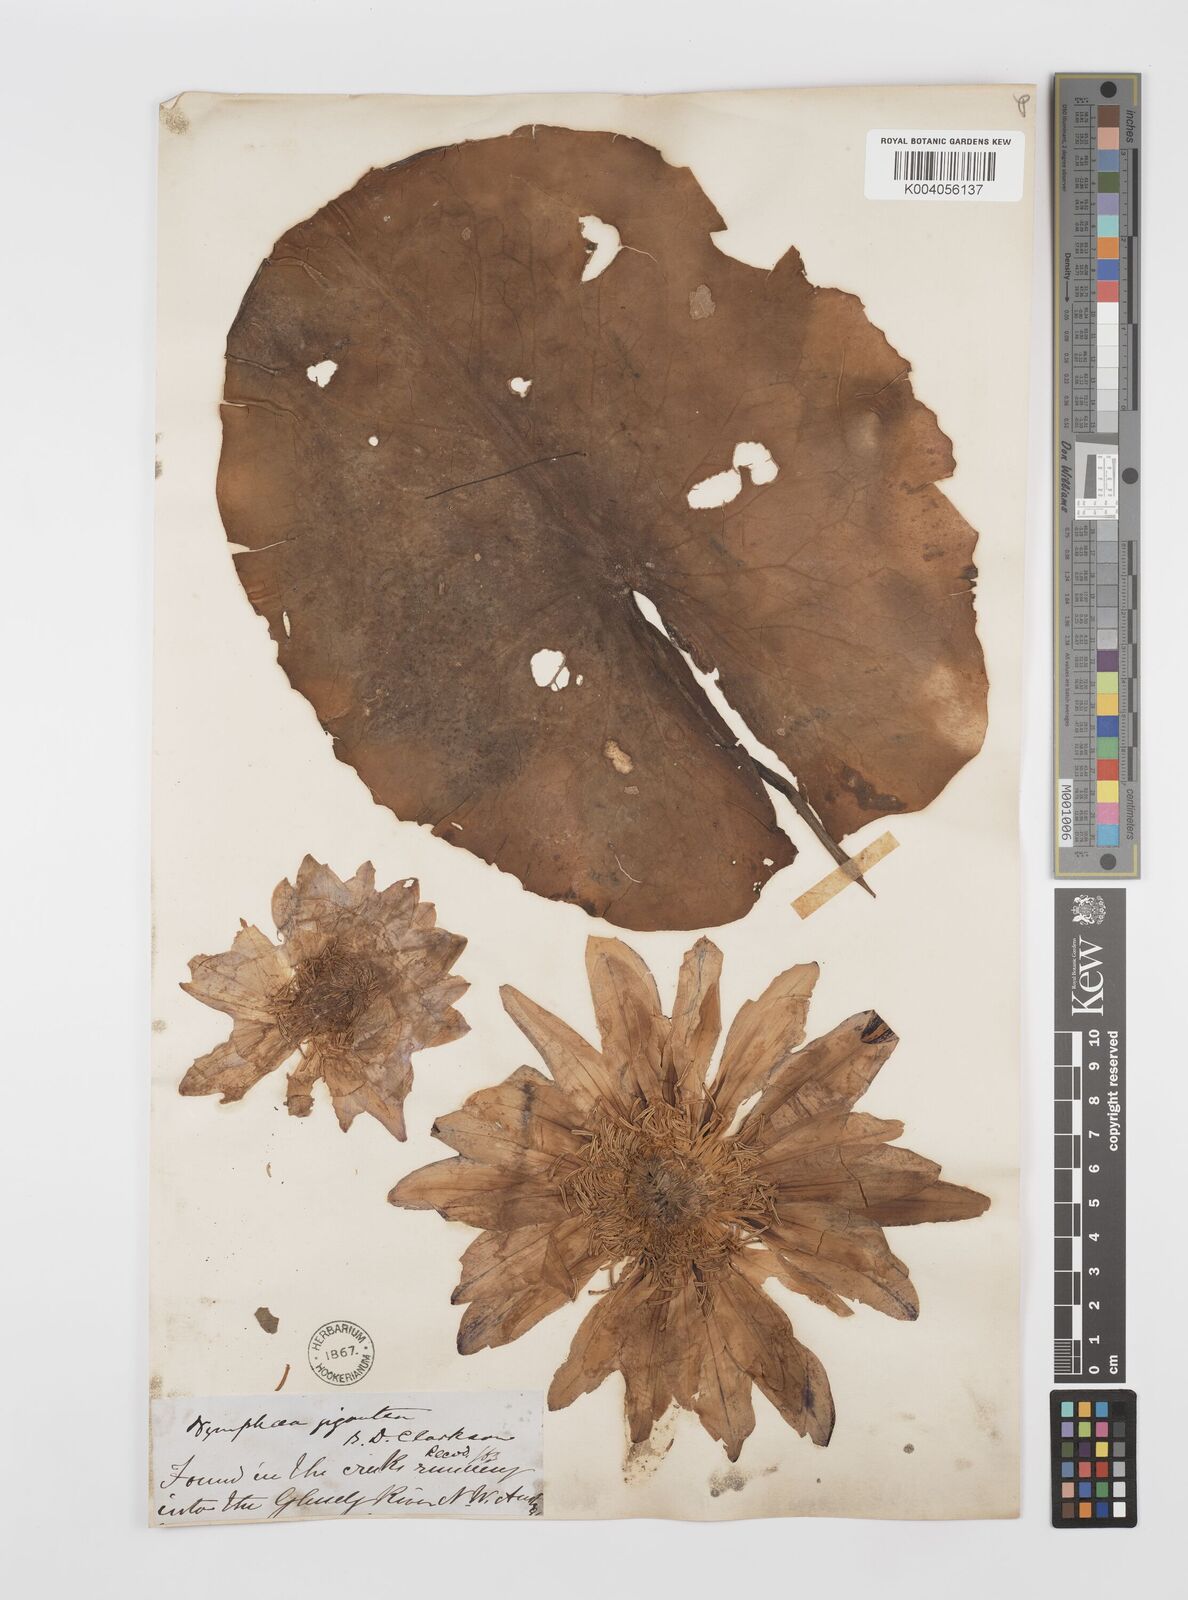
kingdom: Plantae
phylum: Tracheophyta
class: Magnoliopsida
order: Nymphaeales
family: Nymphaeaceae
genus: Nymphaea
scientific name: Nymphaea gigantea
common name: Giant water-lily
